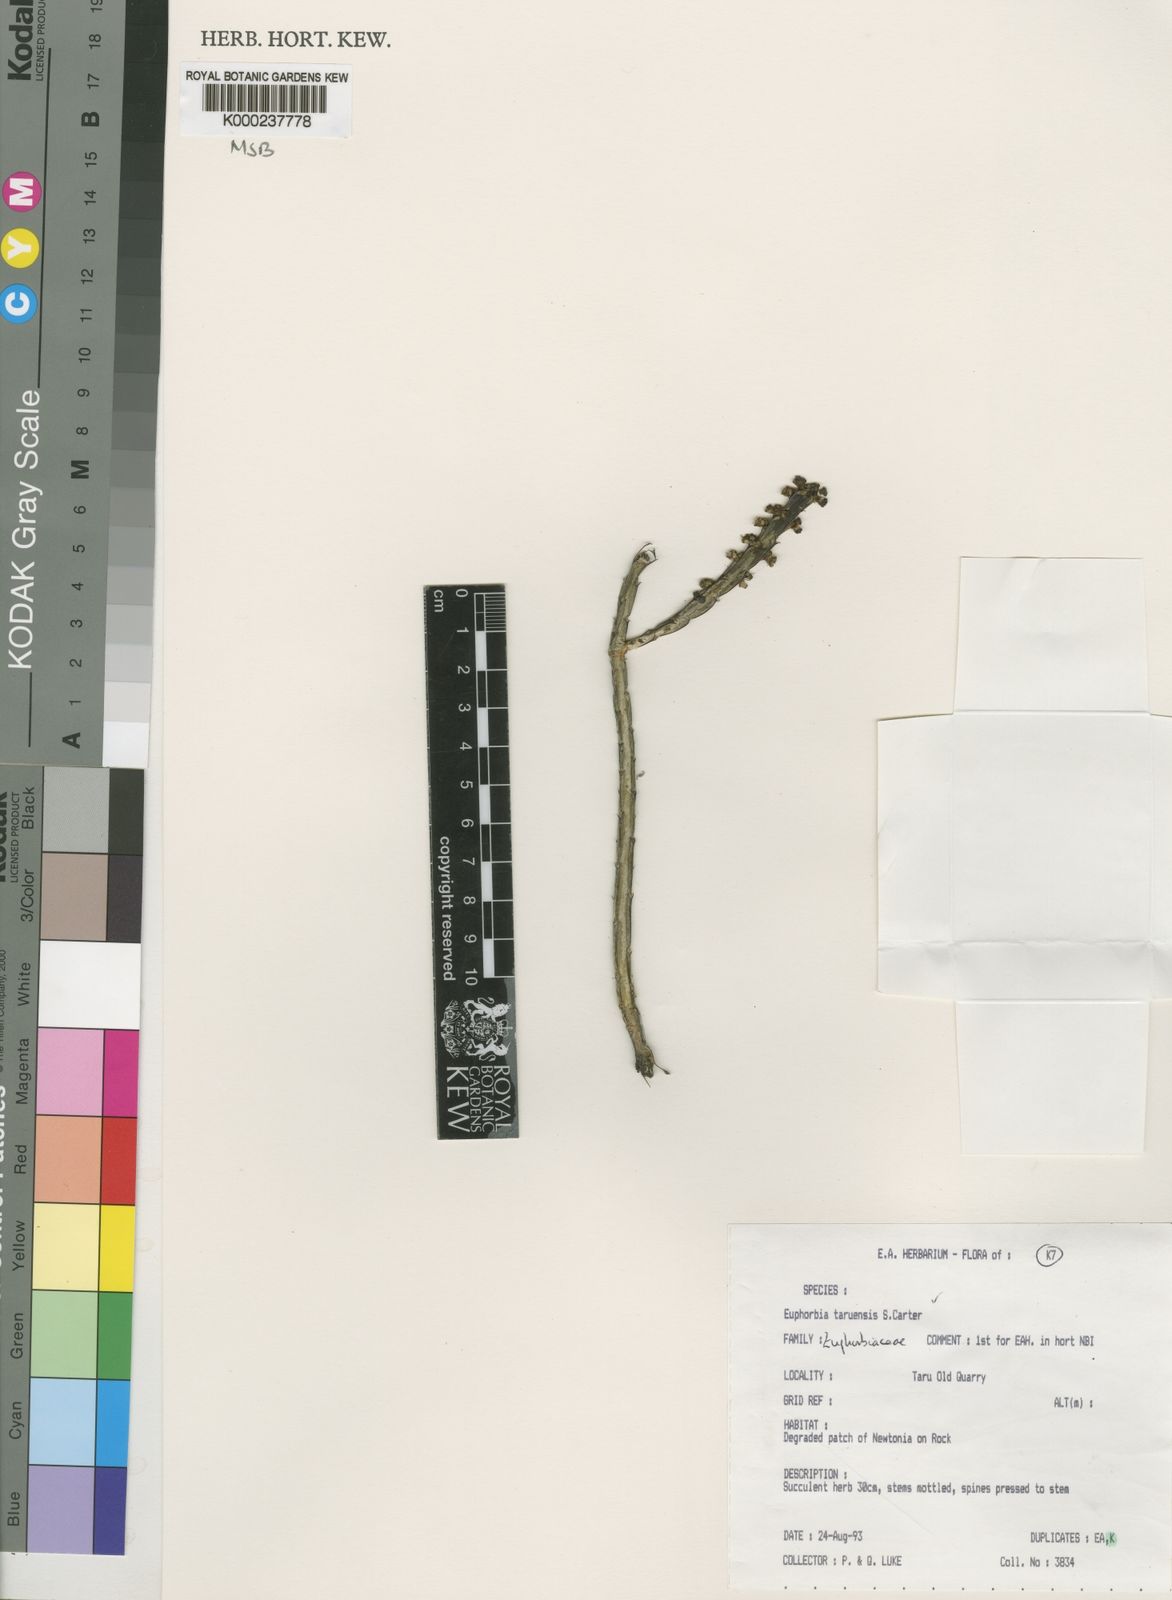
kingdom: Plantae
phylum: Tracheophyta
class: Magnoliopsida
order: Malpighiales
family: Euphorbiaceae
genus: Euphorbia
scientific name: Euphorbia taruensis
